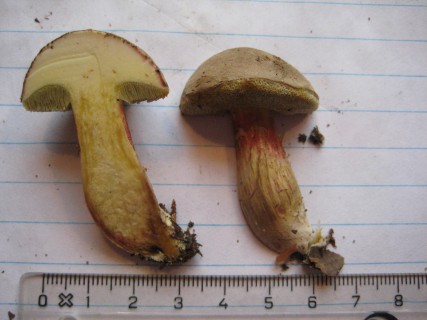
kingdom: Fungi
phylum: Basidiomycota
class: Agaricomycetes
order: Boletales
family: Boletaceae
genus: Xerocomus
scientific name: Xerocomus subtomentosus
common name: filtet rørhat
